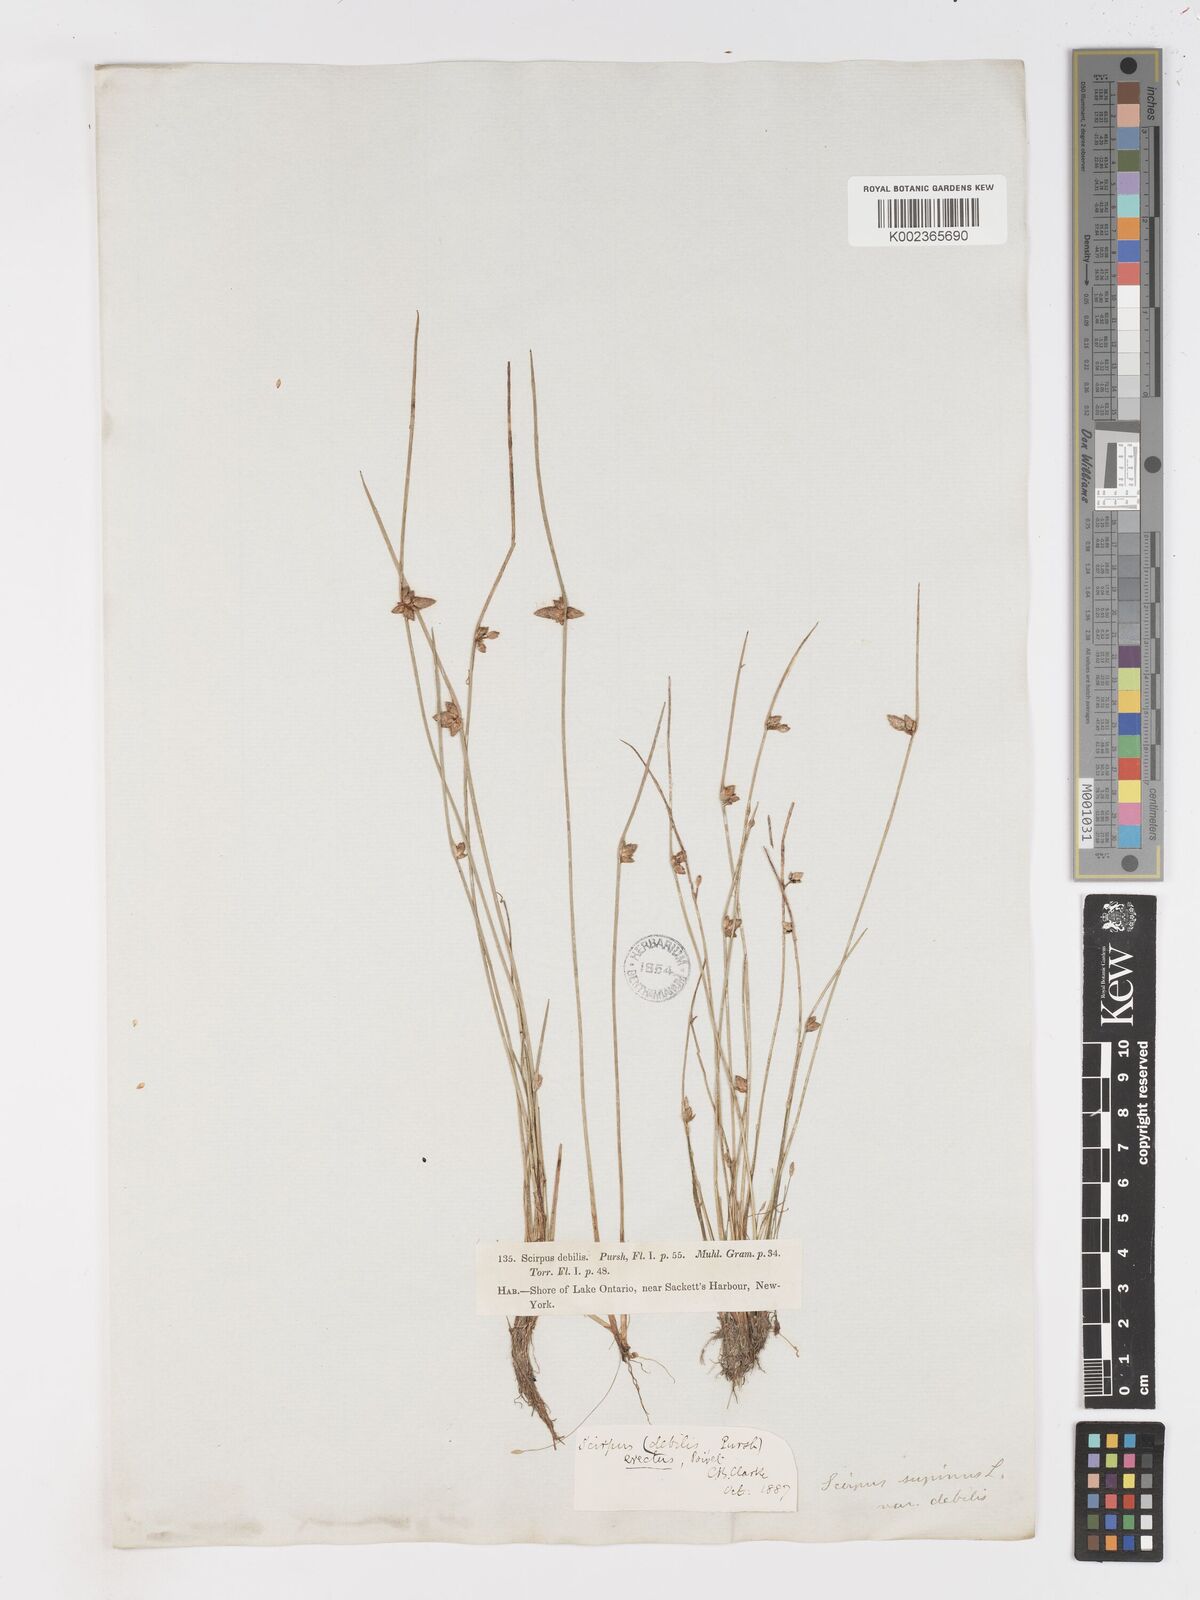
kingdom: Plantae
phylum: Tracheophyta
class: Liliopsida
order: Poales
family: Cyperaceae
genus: Schoenoplectiella
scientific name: Schoenoplectiella purshiana
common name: Weak-stalked bulrush
